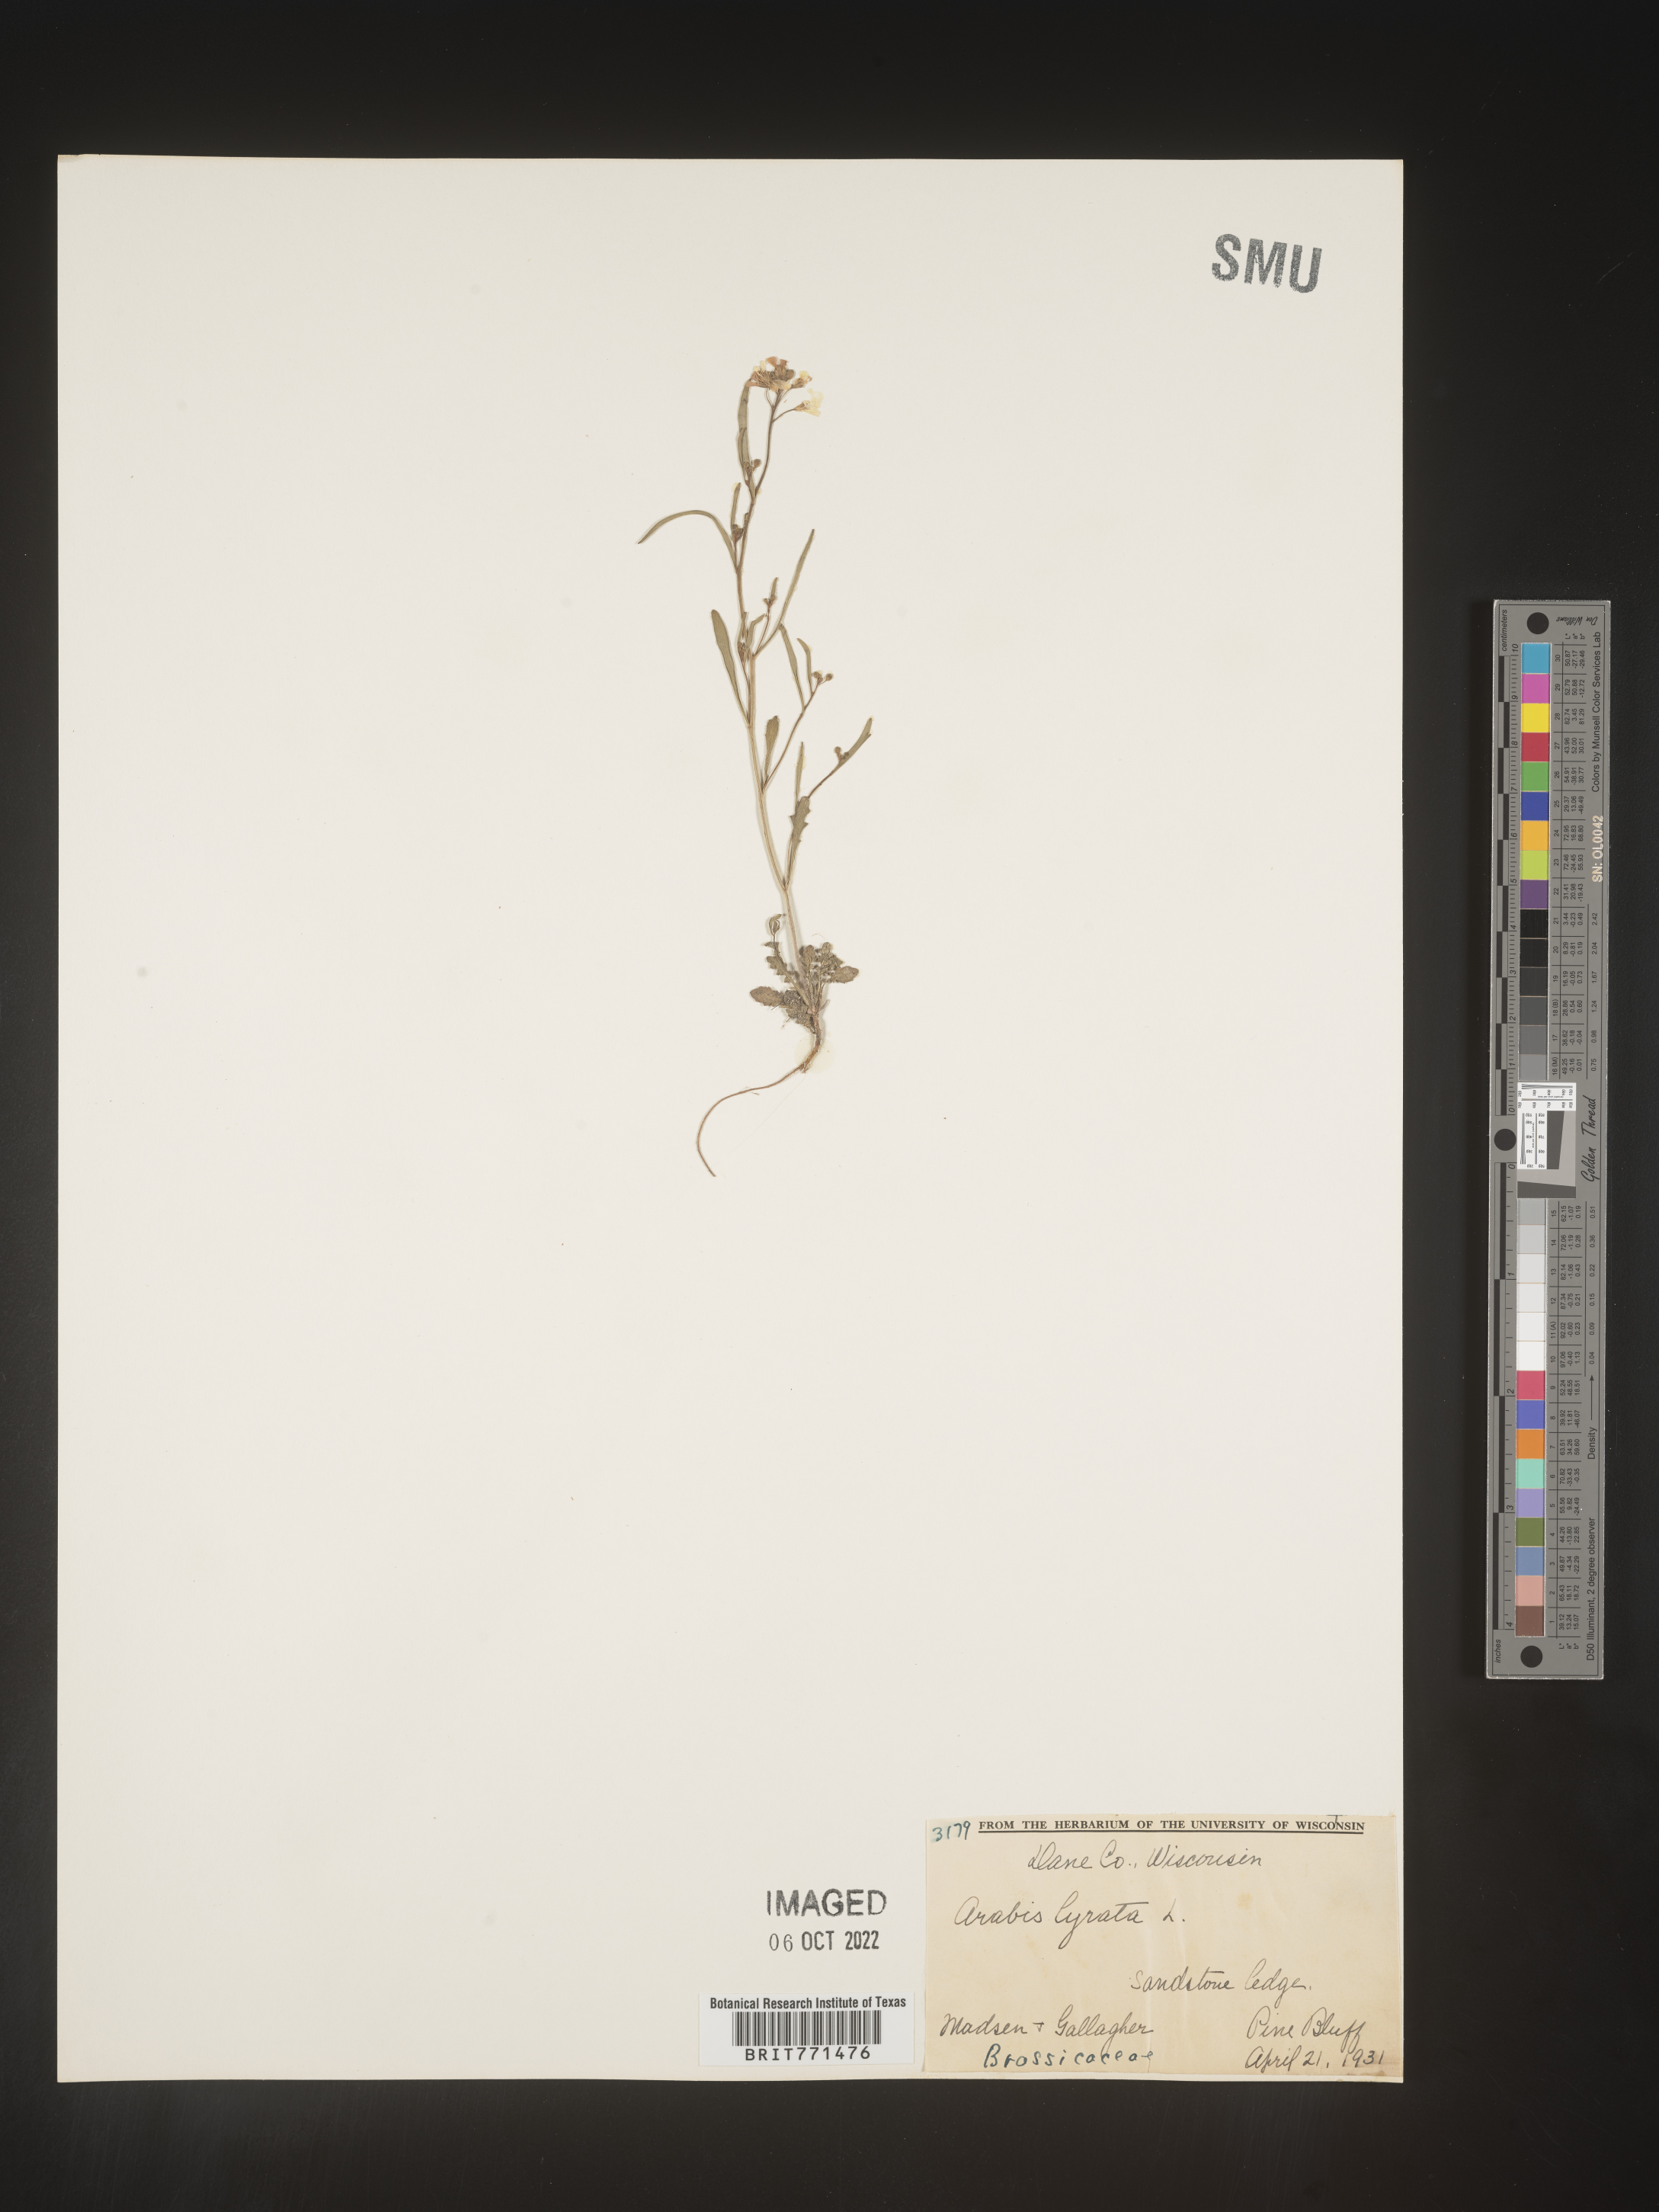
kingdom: Plantae
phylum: Tracheophyta
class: Magnoliopsida
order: Brassicales
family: Brassicaceae
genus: Arabidopsis
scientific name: Arabidopsis lyrata
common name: Lyrate rockcress
